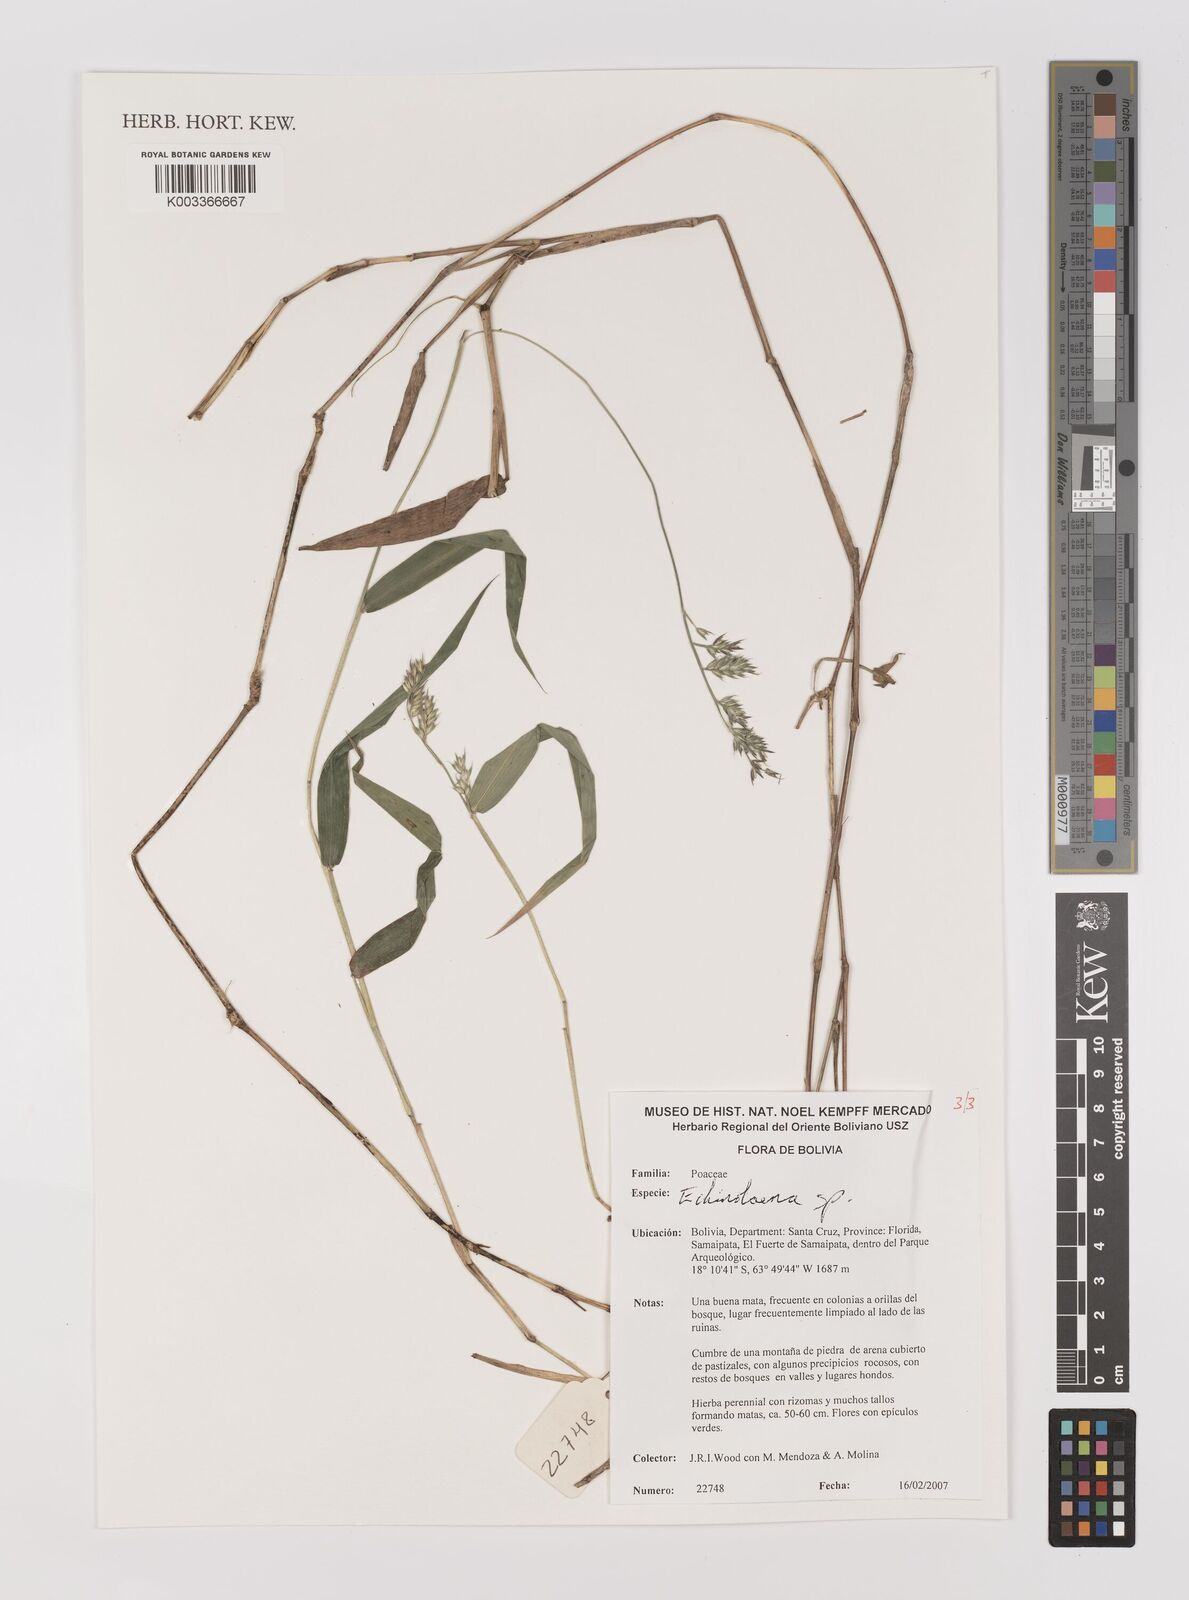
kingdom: Plantae
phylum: Tracheophyta
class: Liliopsida
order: Poales
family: Poaceae
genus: Oedochloa
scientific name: Oedochloa minarum
